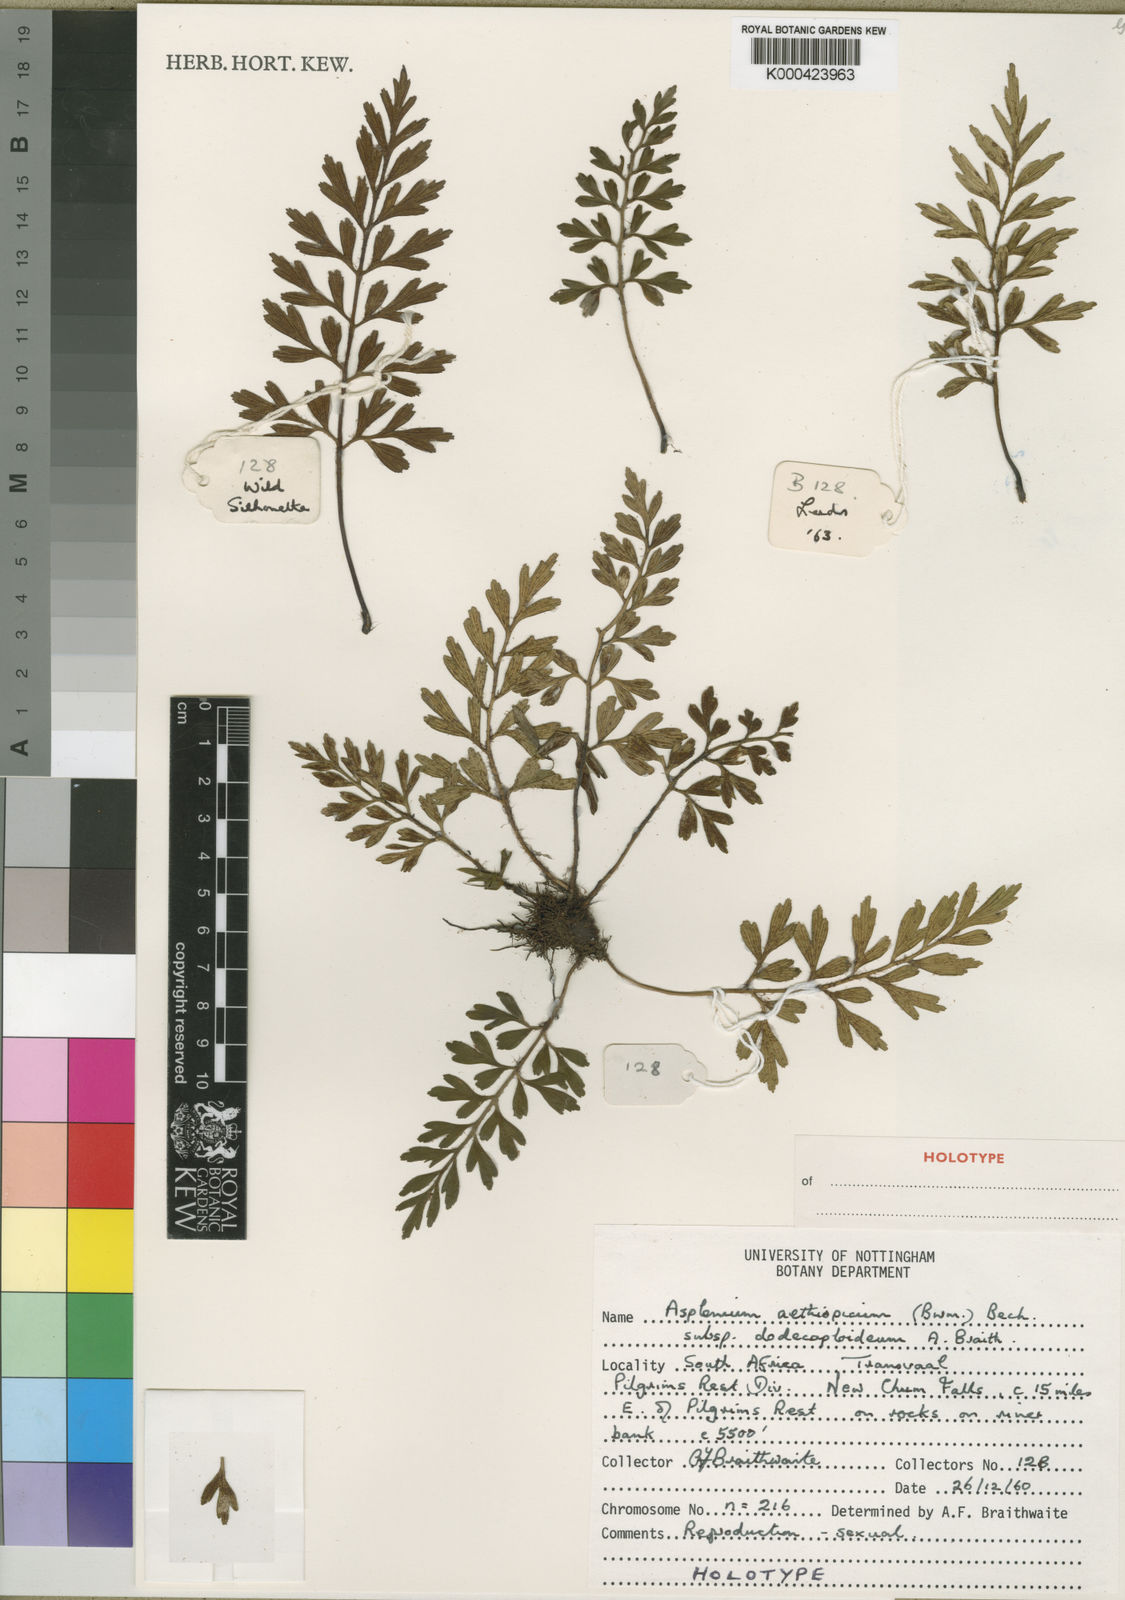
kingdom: Plantae
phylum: Tracheophyta
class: Polypodiopsida
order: Polypodiales
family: Aspleniaceae
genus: Asplenium
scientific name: Asplenium dodecaploideum
